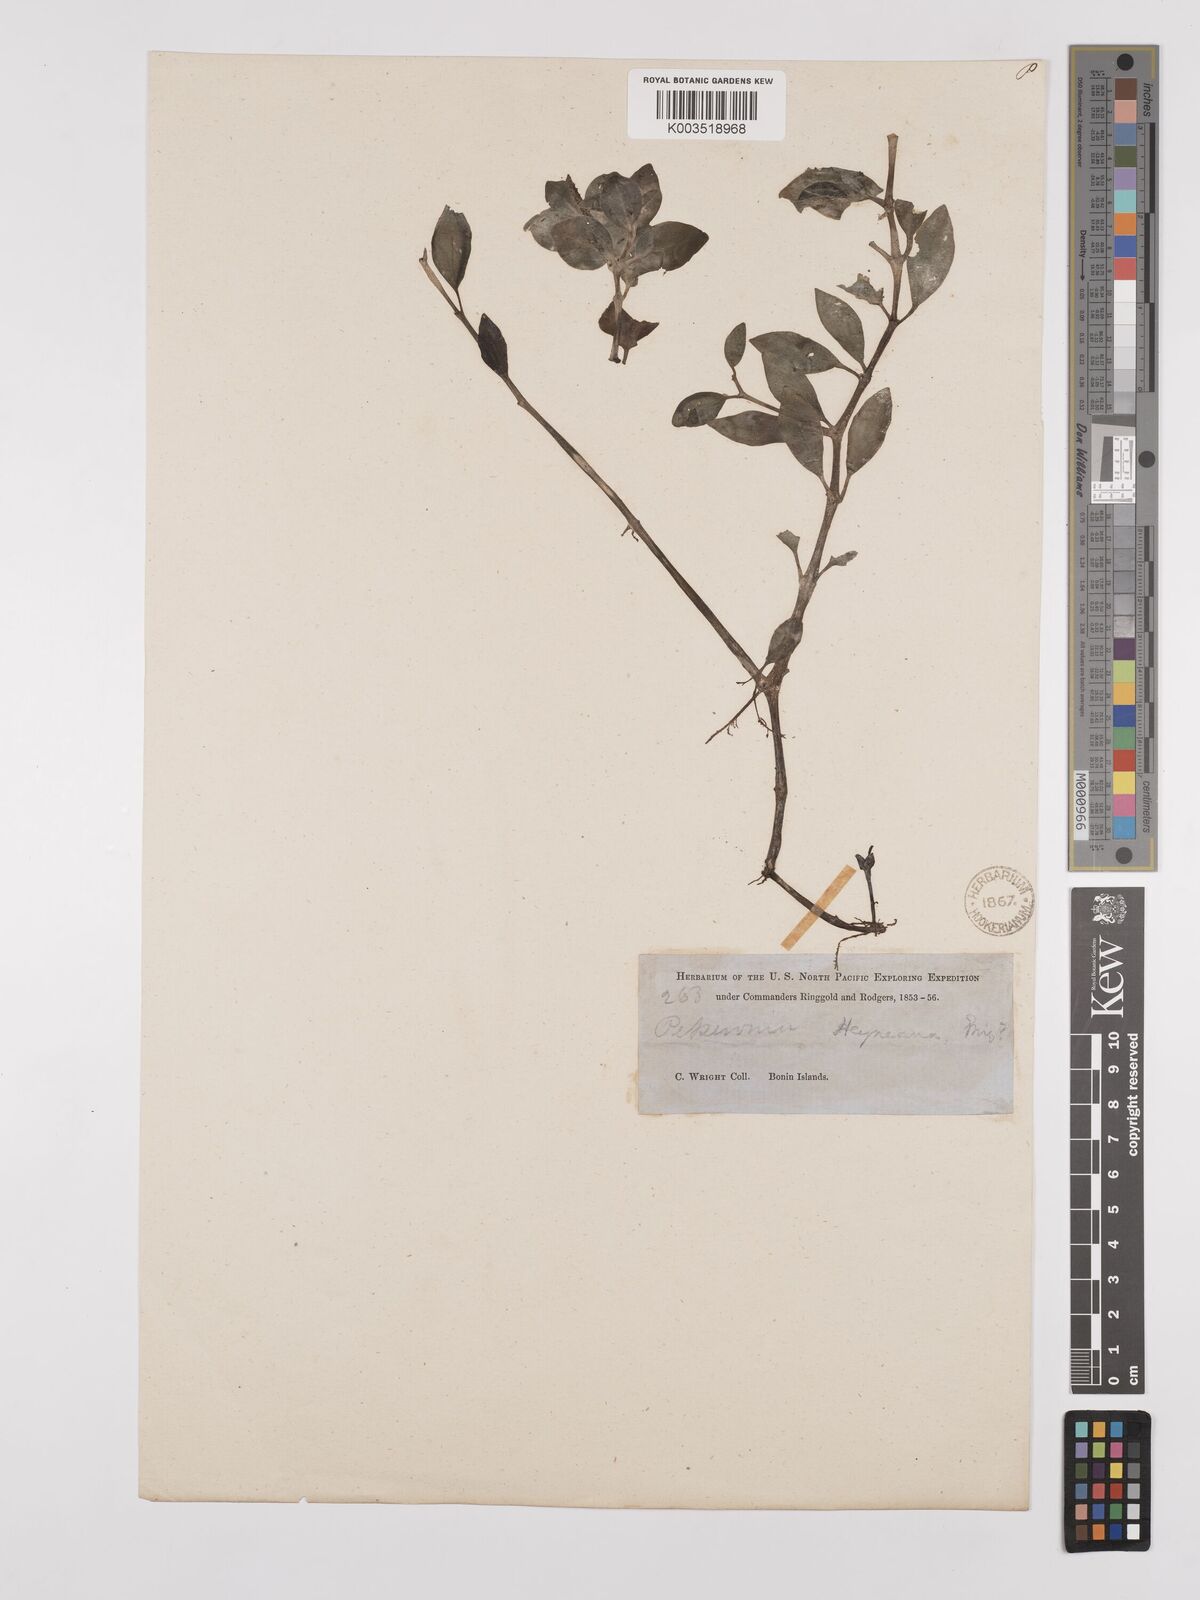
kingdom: Plantae
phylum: Tracheophyta
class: Magnoliopsida
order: Piperales
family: Piperaceae
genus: Peperomia
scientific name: Peperomia heyneana
